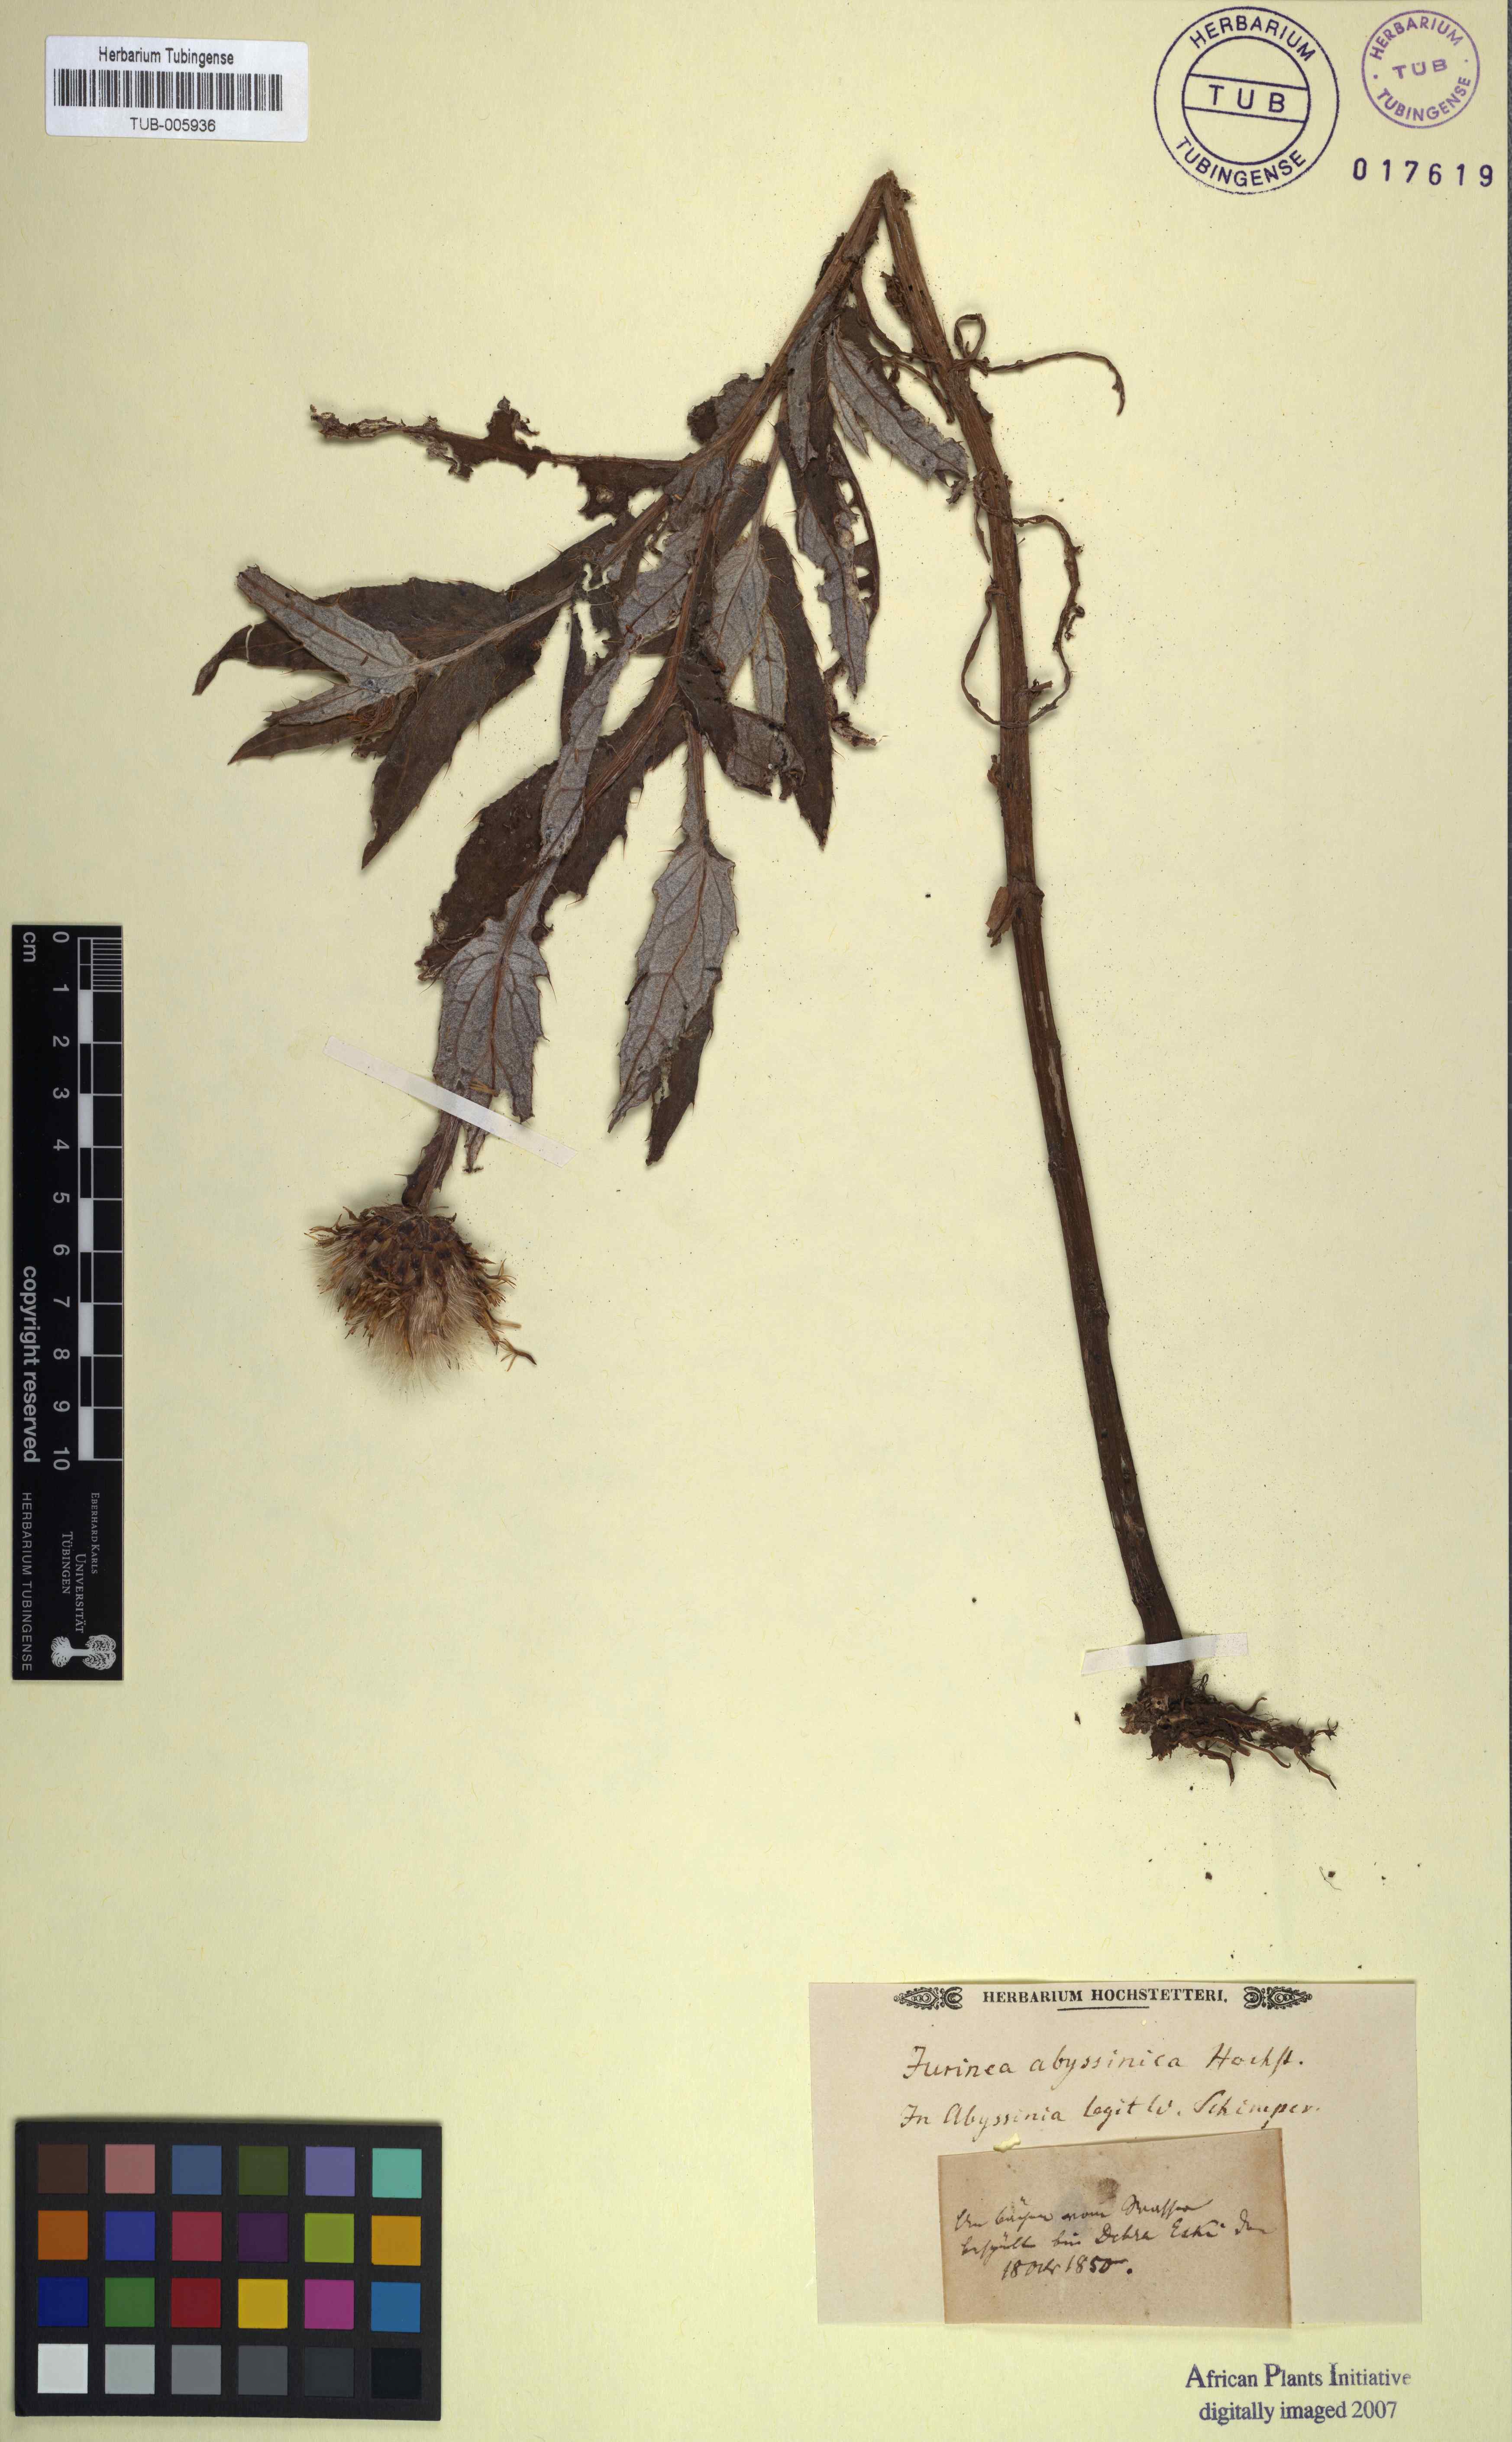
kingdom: Plantae
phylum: Tracheophyta
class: Magnoliopsida
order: Asterales
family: Asteraceae
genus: Jurinea
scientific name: Jurinea
